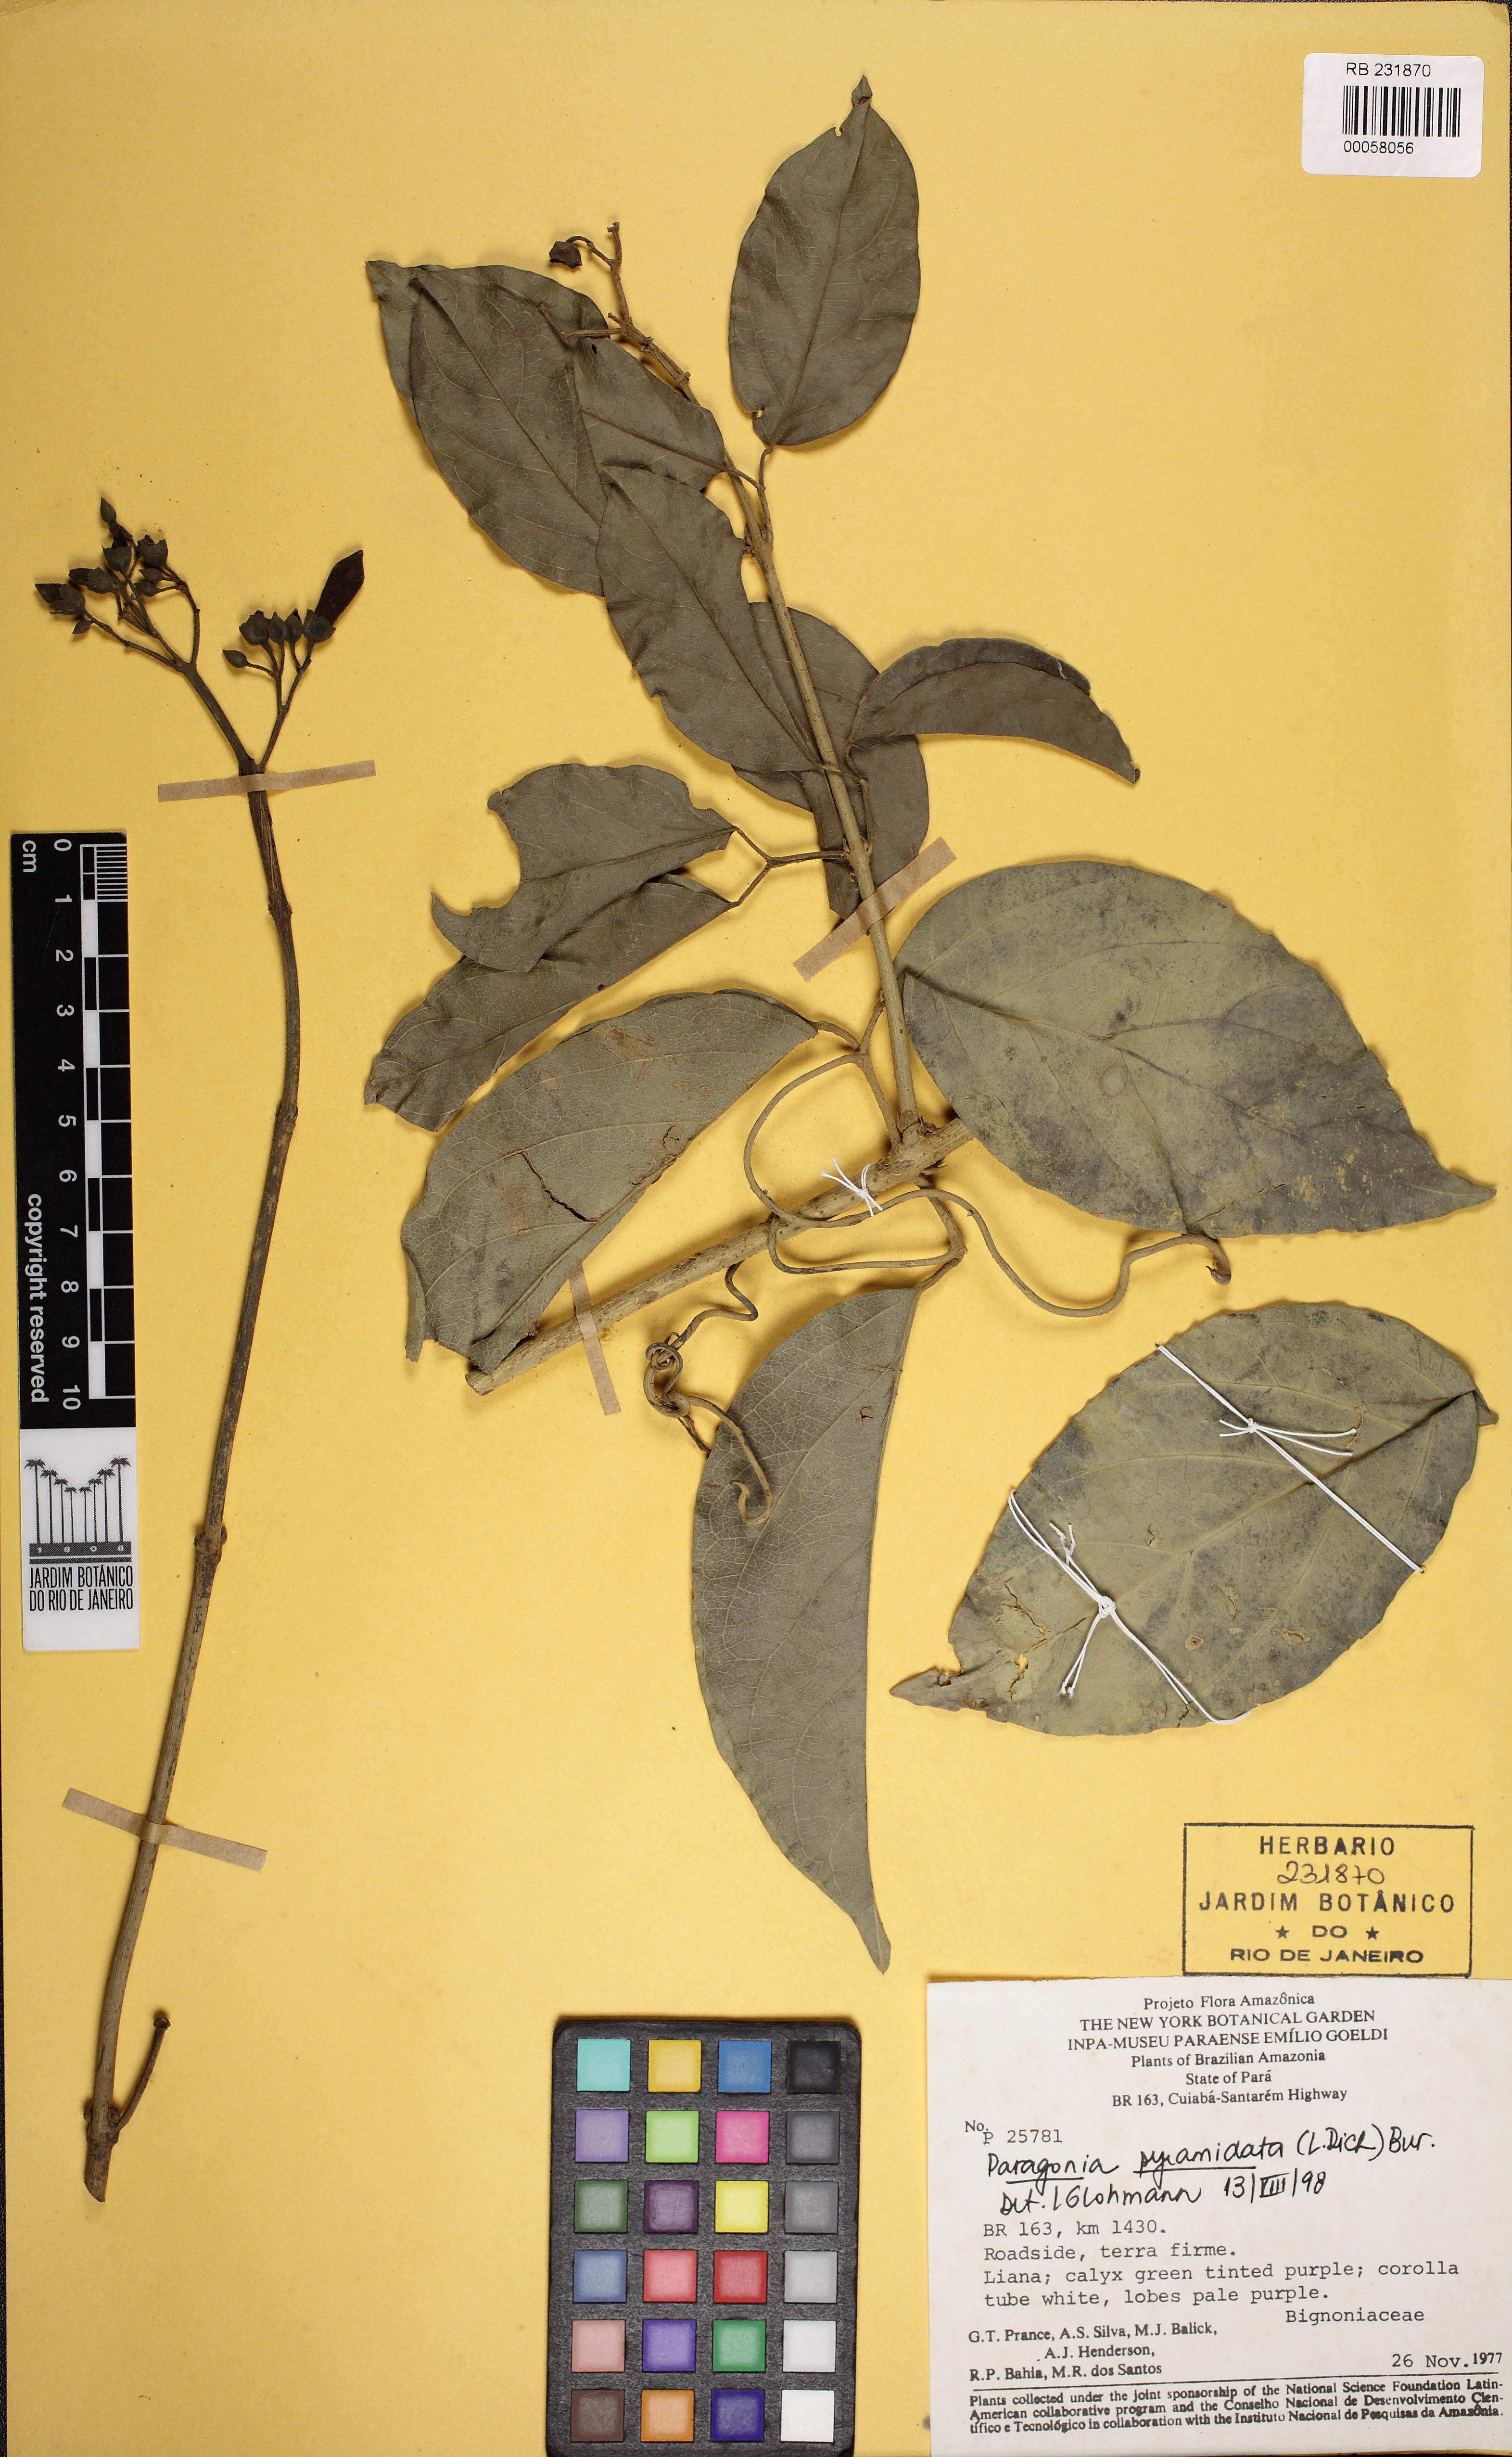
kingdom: Plantae
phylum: Tracheophyta
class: Magnoliopsida
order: Lamiales
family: Bignoniaceae
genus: Tanaecium
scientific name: Tanaecium pyramidatum
